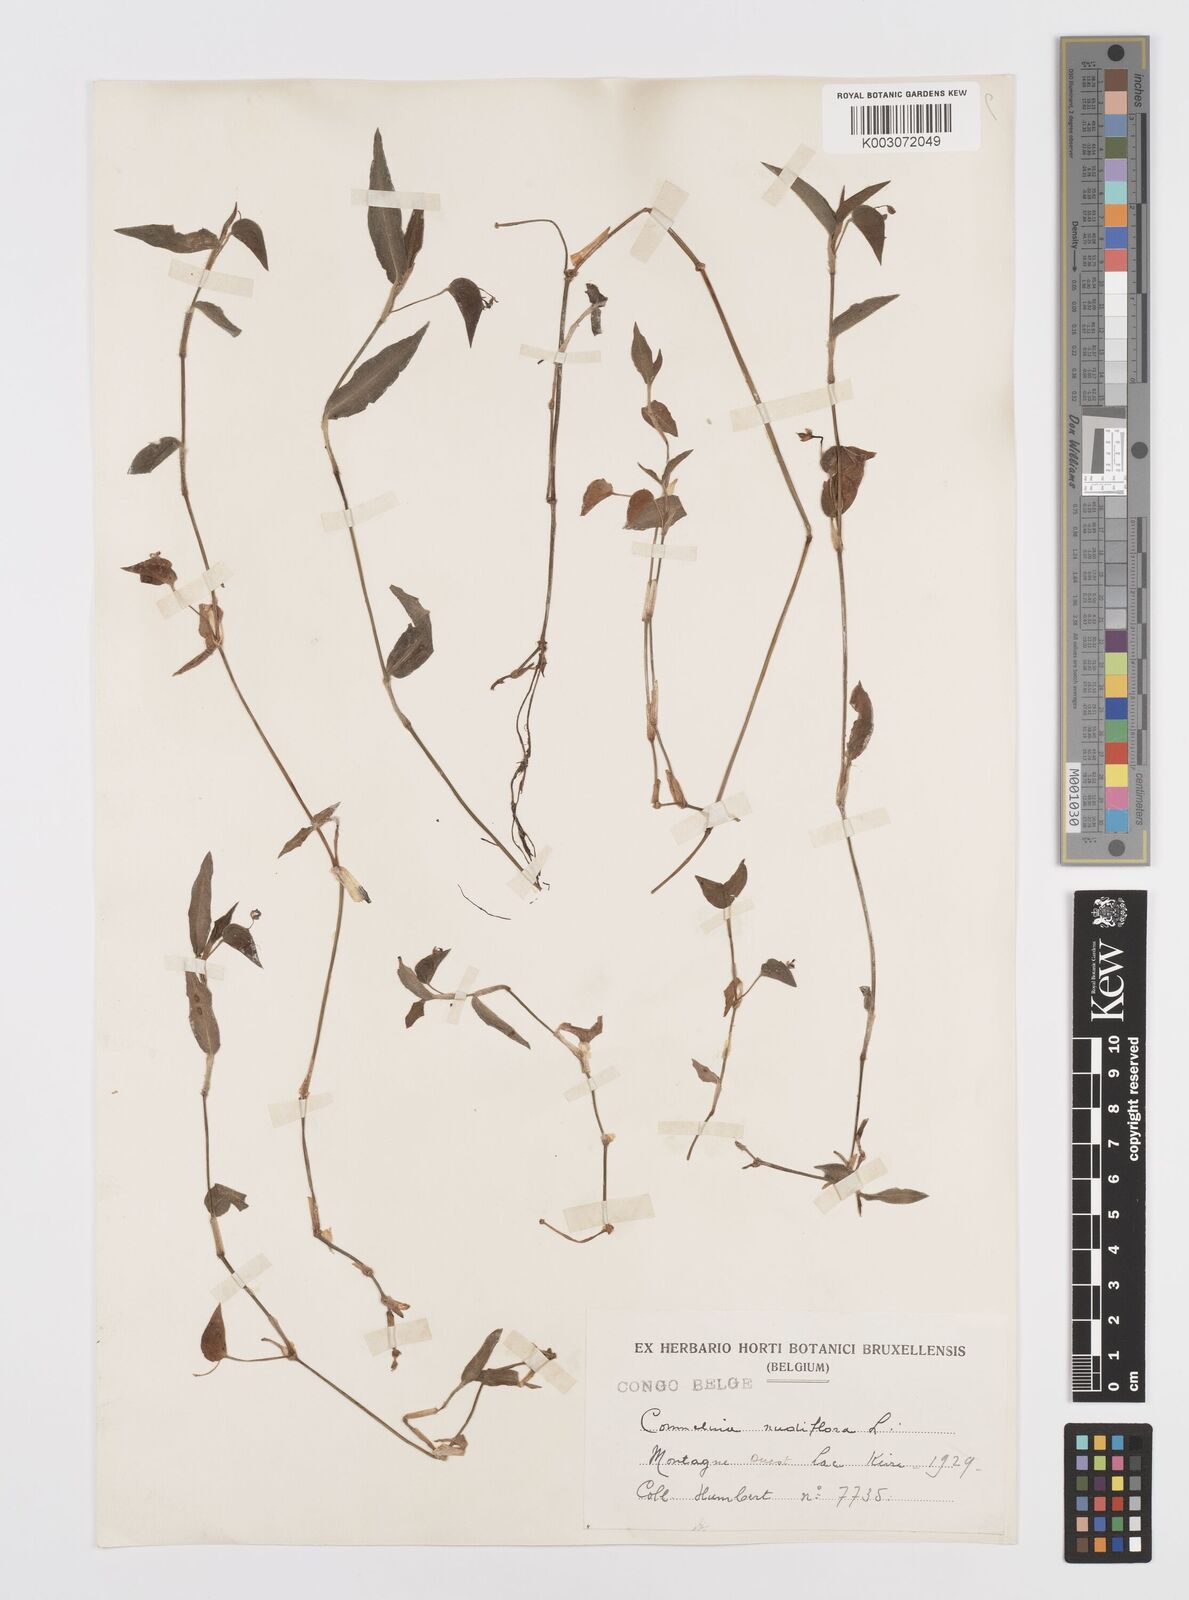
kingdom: Plantae
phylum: Tracheophyta
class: Liliopsida
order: Commelinales
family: Commelinaceae
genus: Commelina
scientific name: Commelina diffusa
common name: Climbing dayflower
